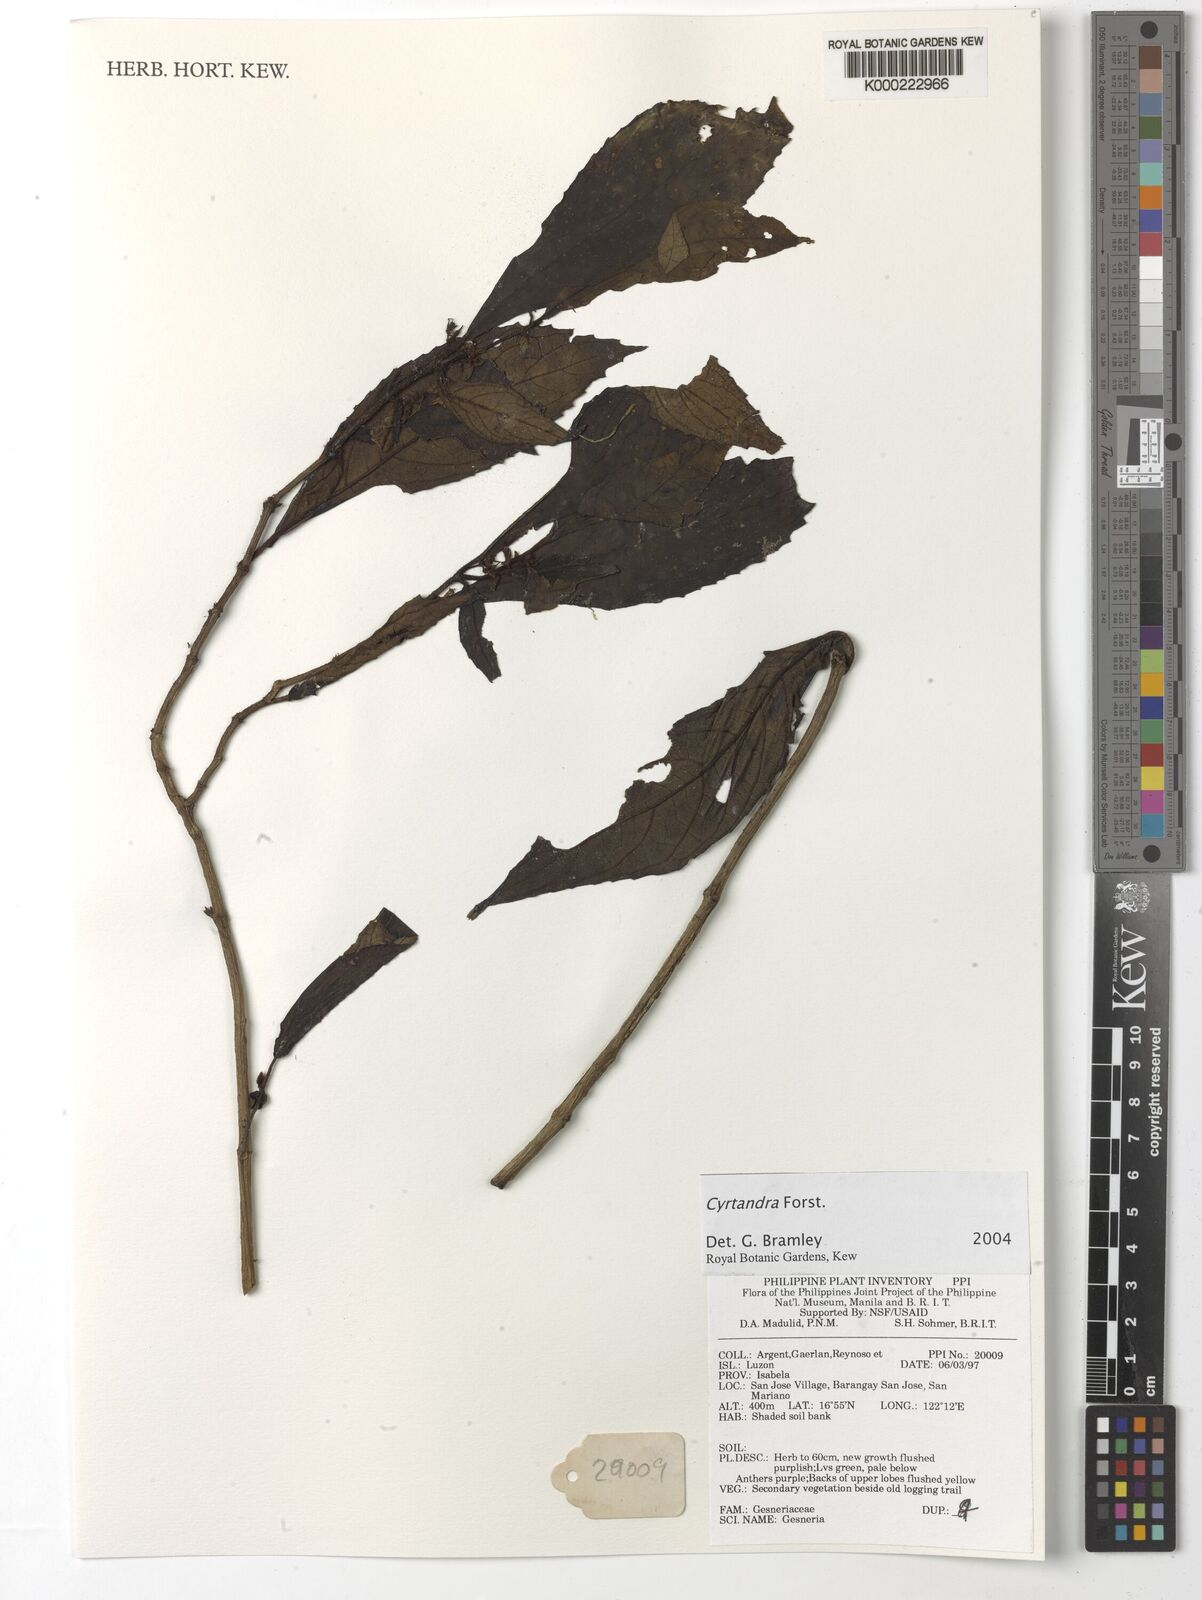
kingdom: Plantae
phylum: Tracheophyta
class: Magnoliopsida
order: Lamiales
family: Gesneriaceae
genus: Cyrtandra
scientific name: Cyrtandra
